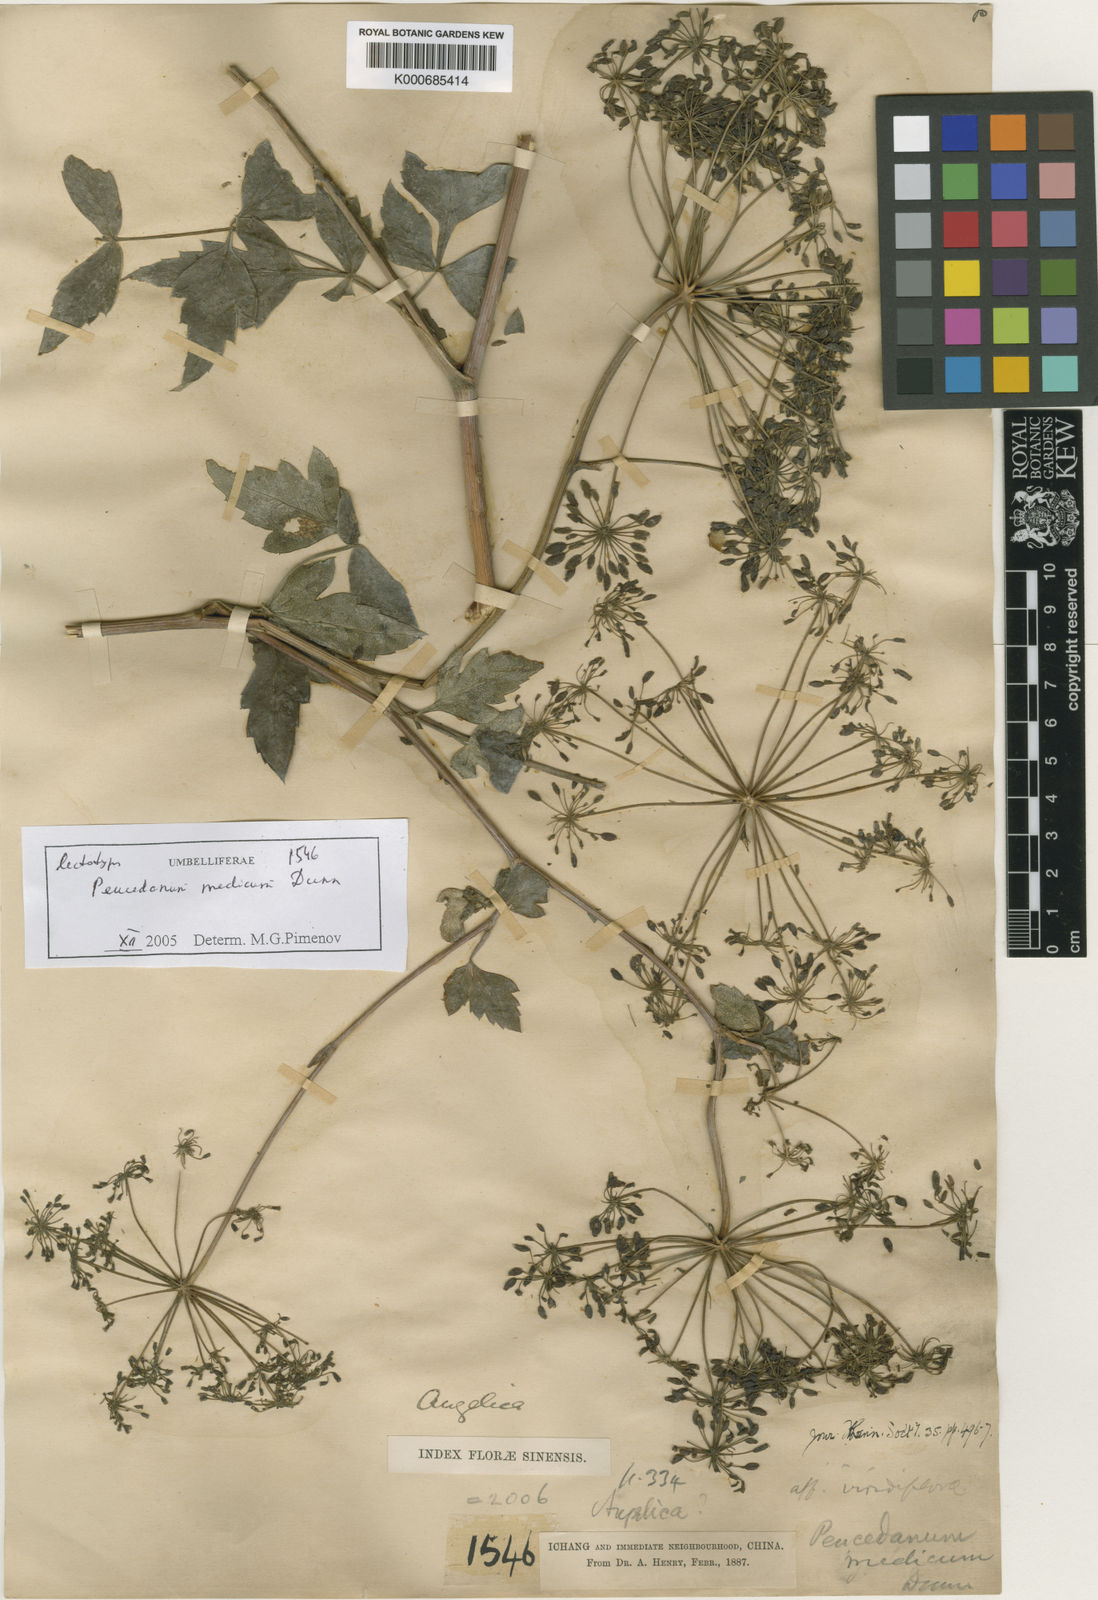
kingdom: Plantae
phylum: Tracheophyta
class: Magnoliopsida
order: Apiales
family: Apiaceae
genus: Peucedanum
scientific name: Peucedanum medicum
